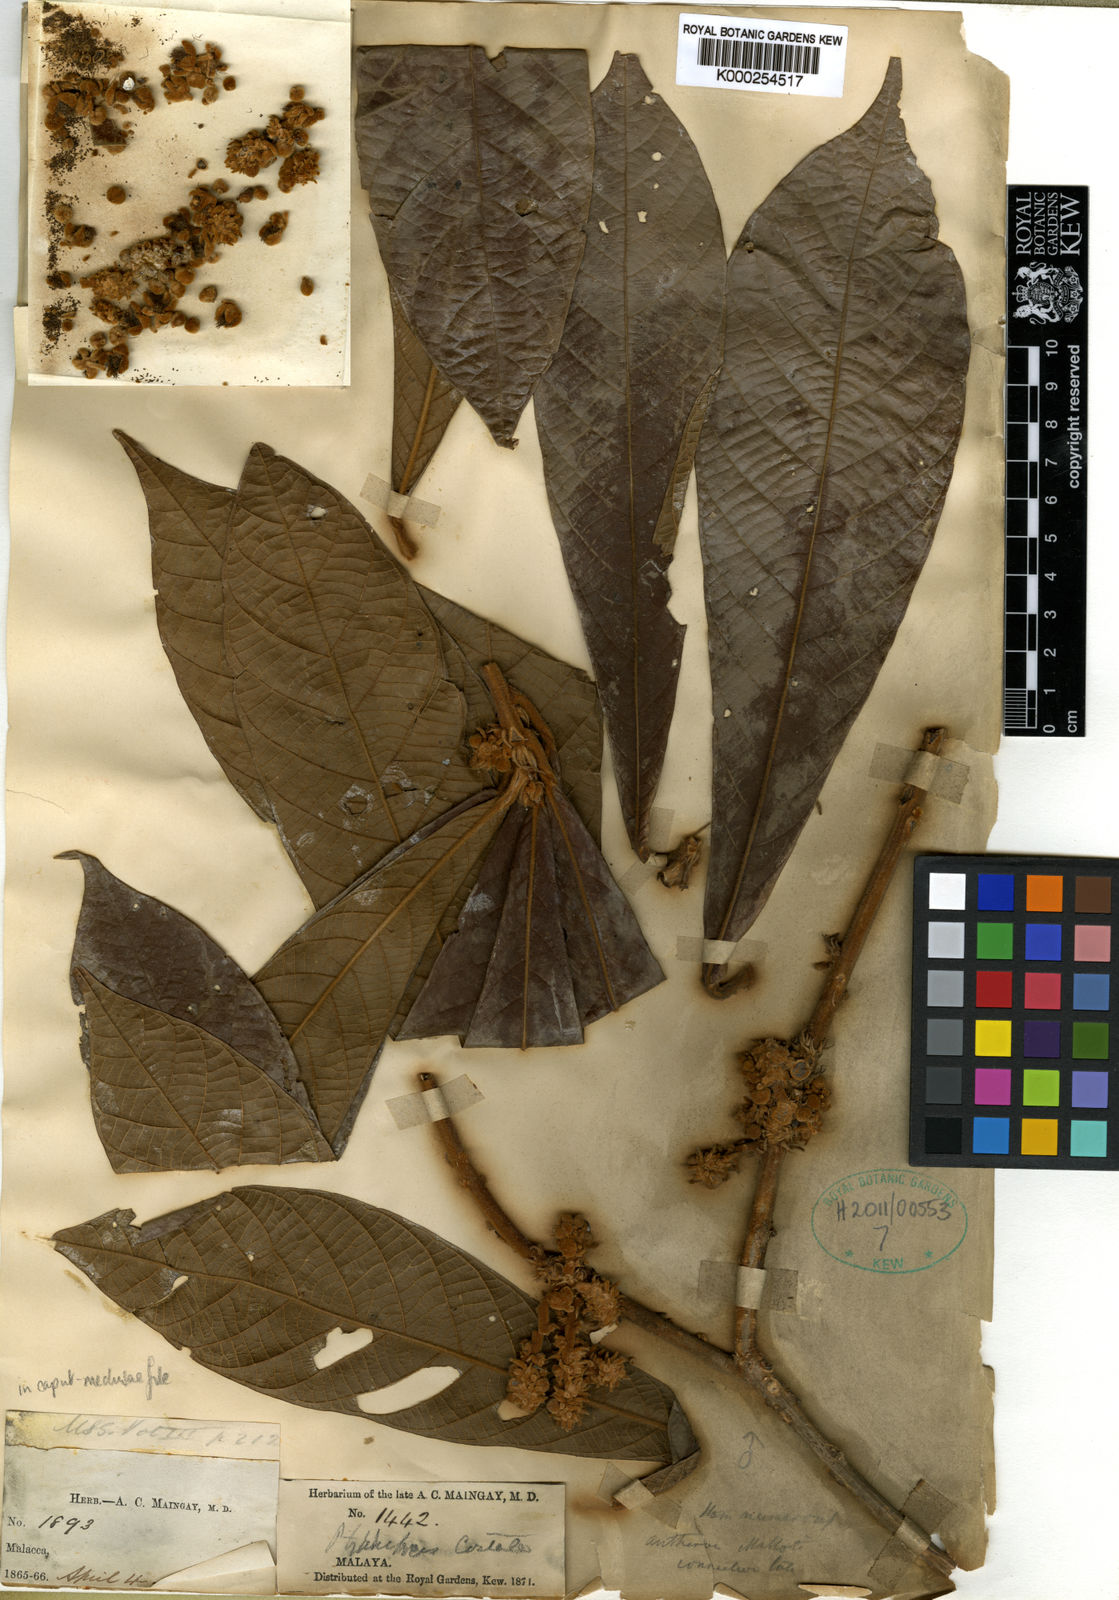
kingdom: Plantae
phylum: Tracheophyta
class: Magnoliopsida
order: Malpighiales
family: Euphorbiaceae
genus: Ptychopyxis
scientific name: Ptychopyxis costata
